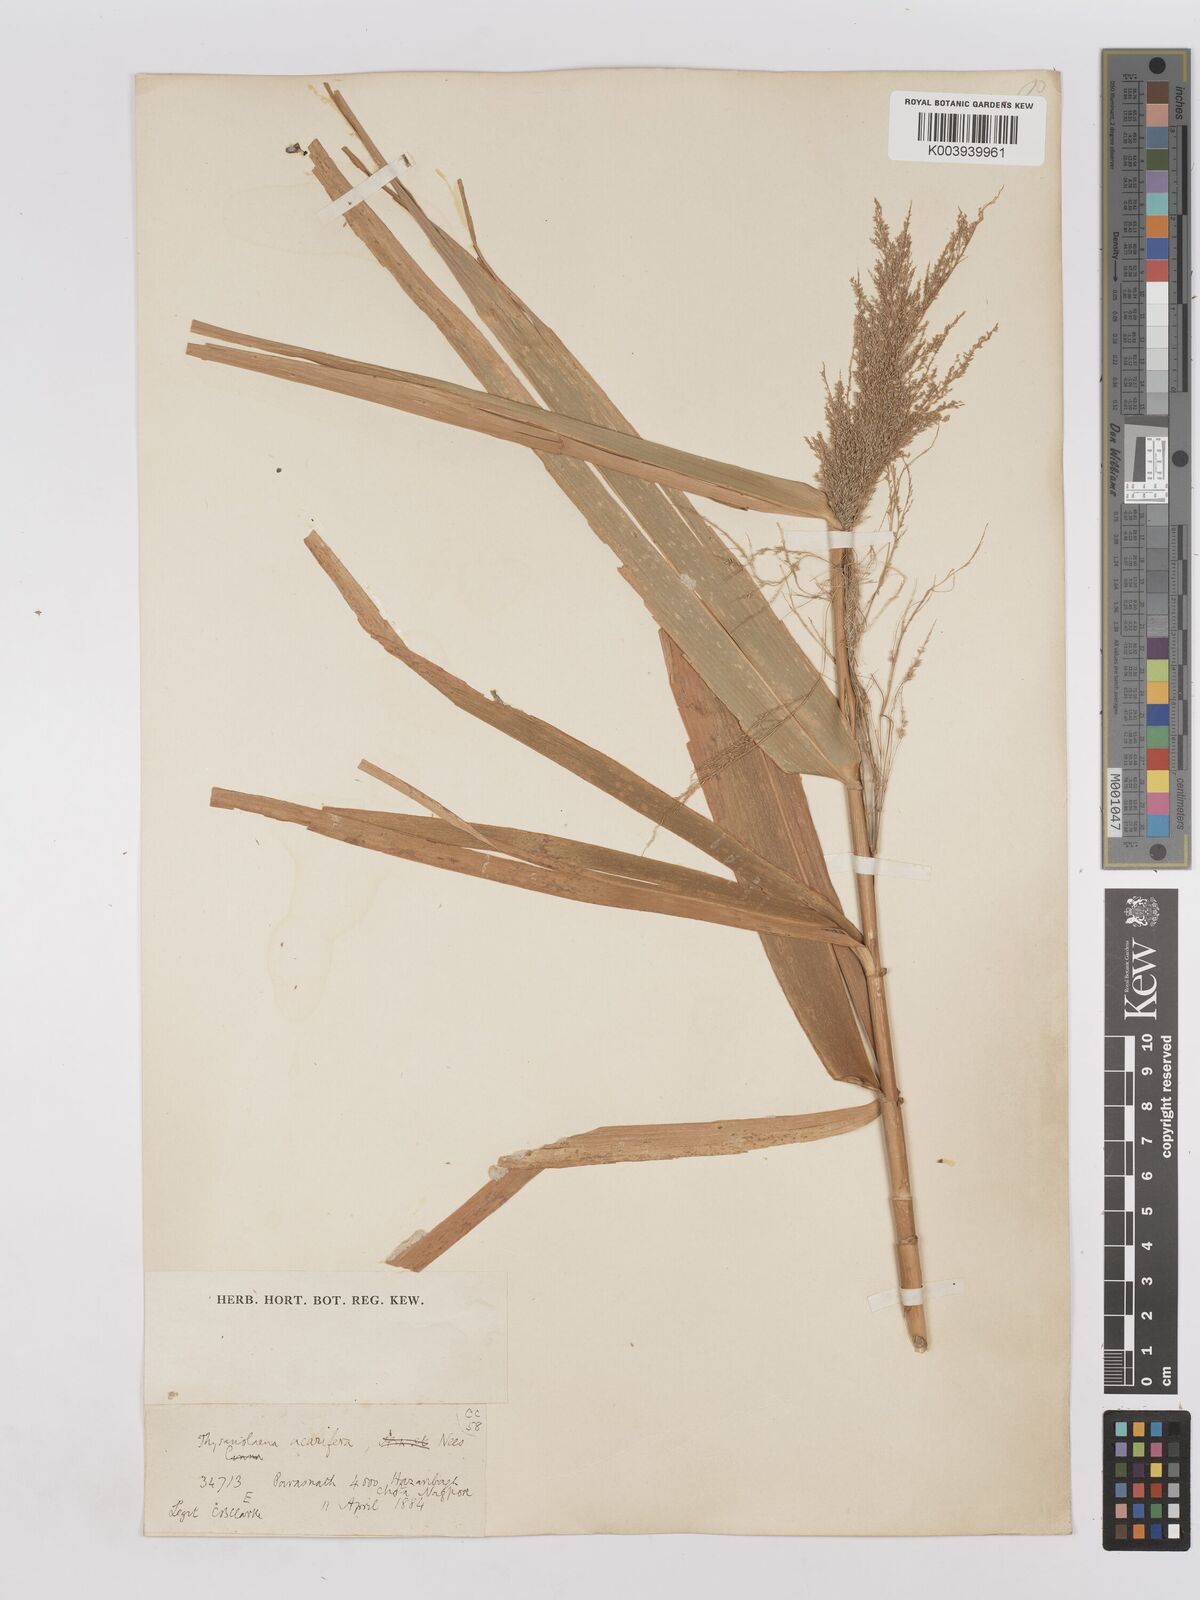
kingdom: Plantae
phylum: Tracheophyta
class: Liliopsida
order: Poales
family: Poaceae
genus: Thysanolaena
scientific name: Thysanolaena latifolia
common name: Tiger grass
